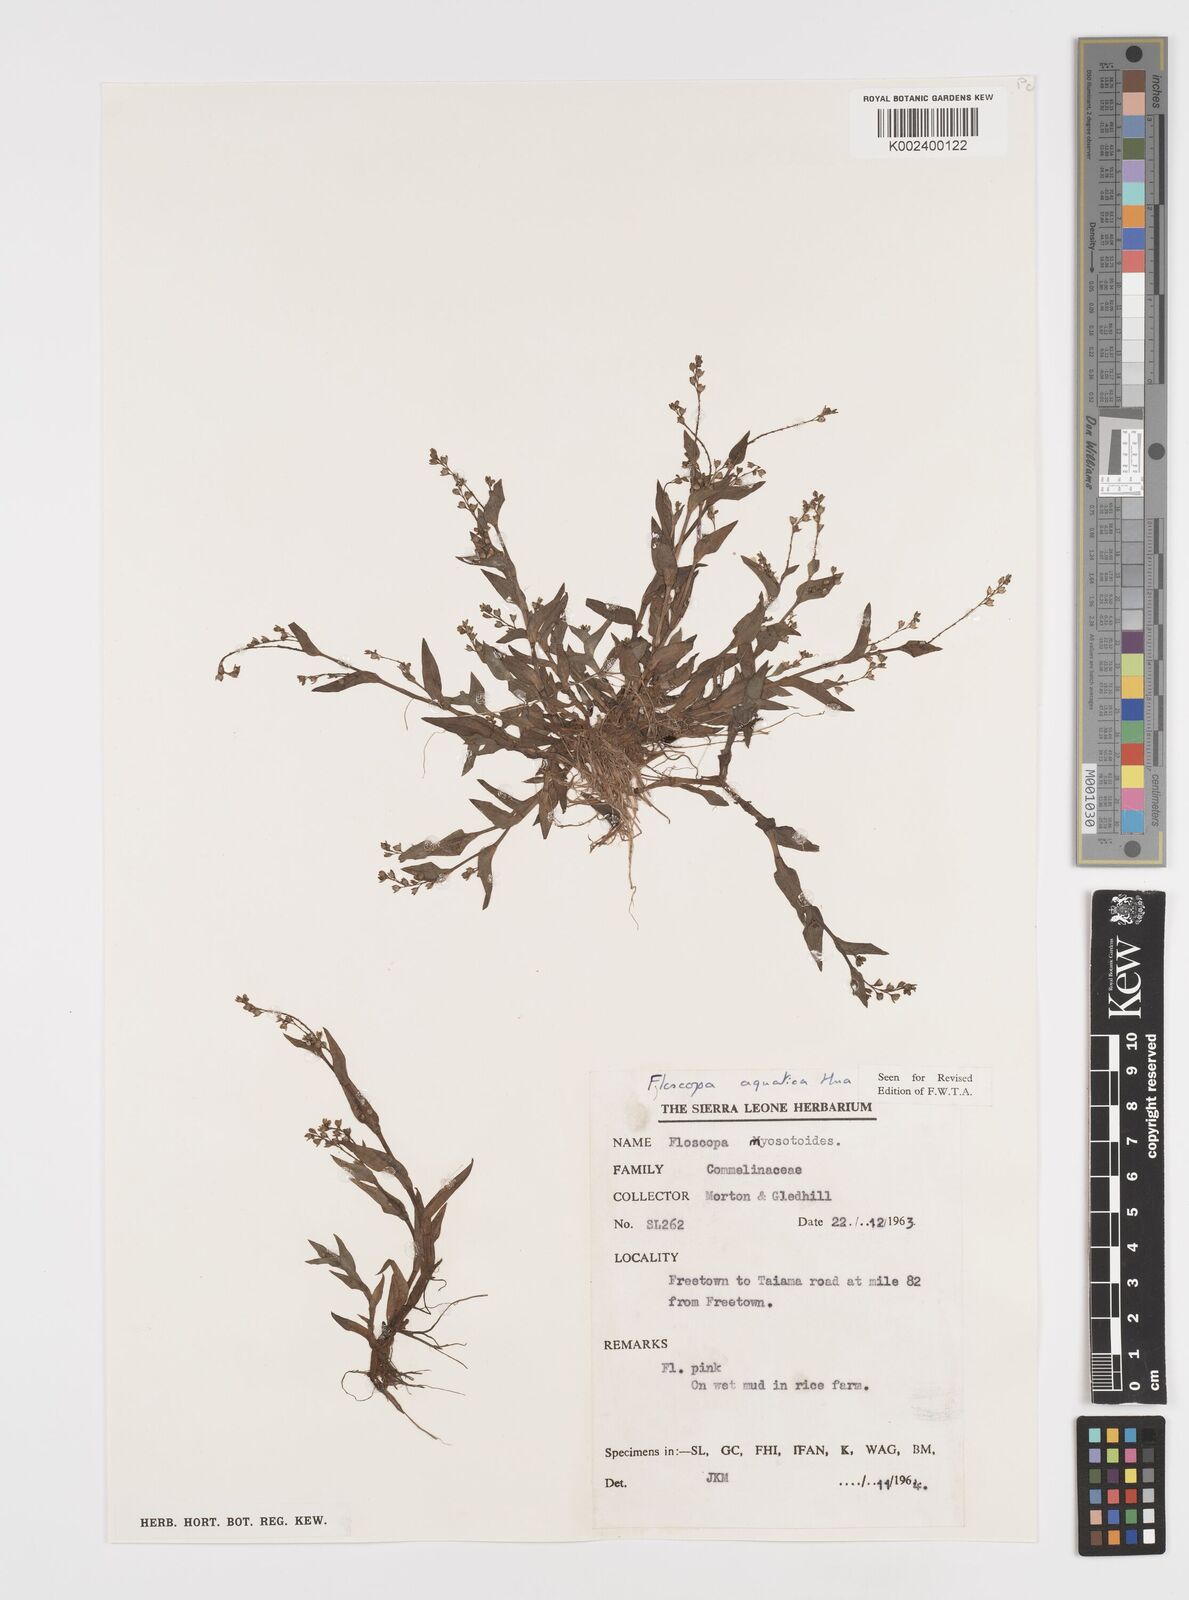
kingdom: Plantae
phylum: Tracheophyta
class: Liliopsida
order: Commelinales
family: Commelinaceae
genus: Floscopa
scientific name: Floscopa aquatica
